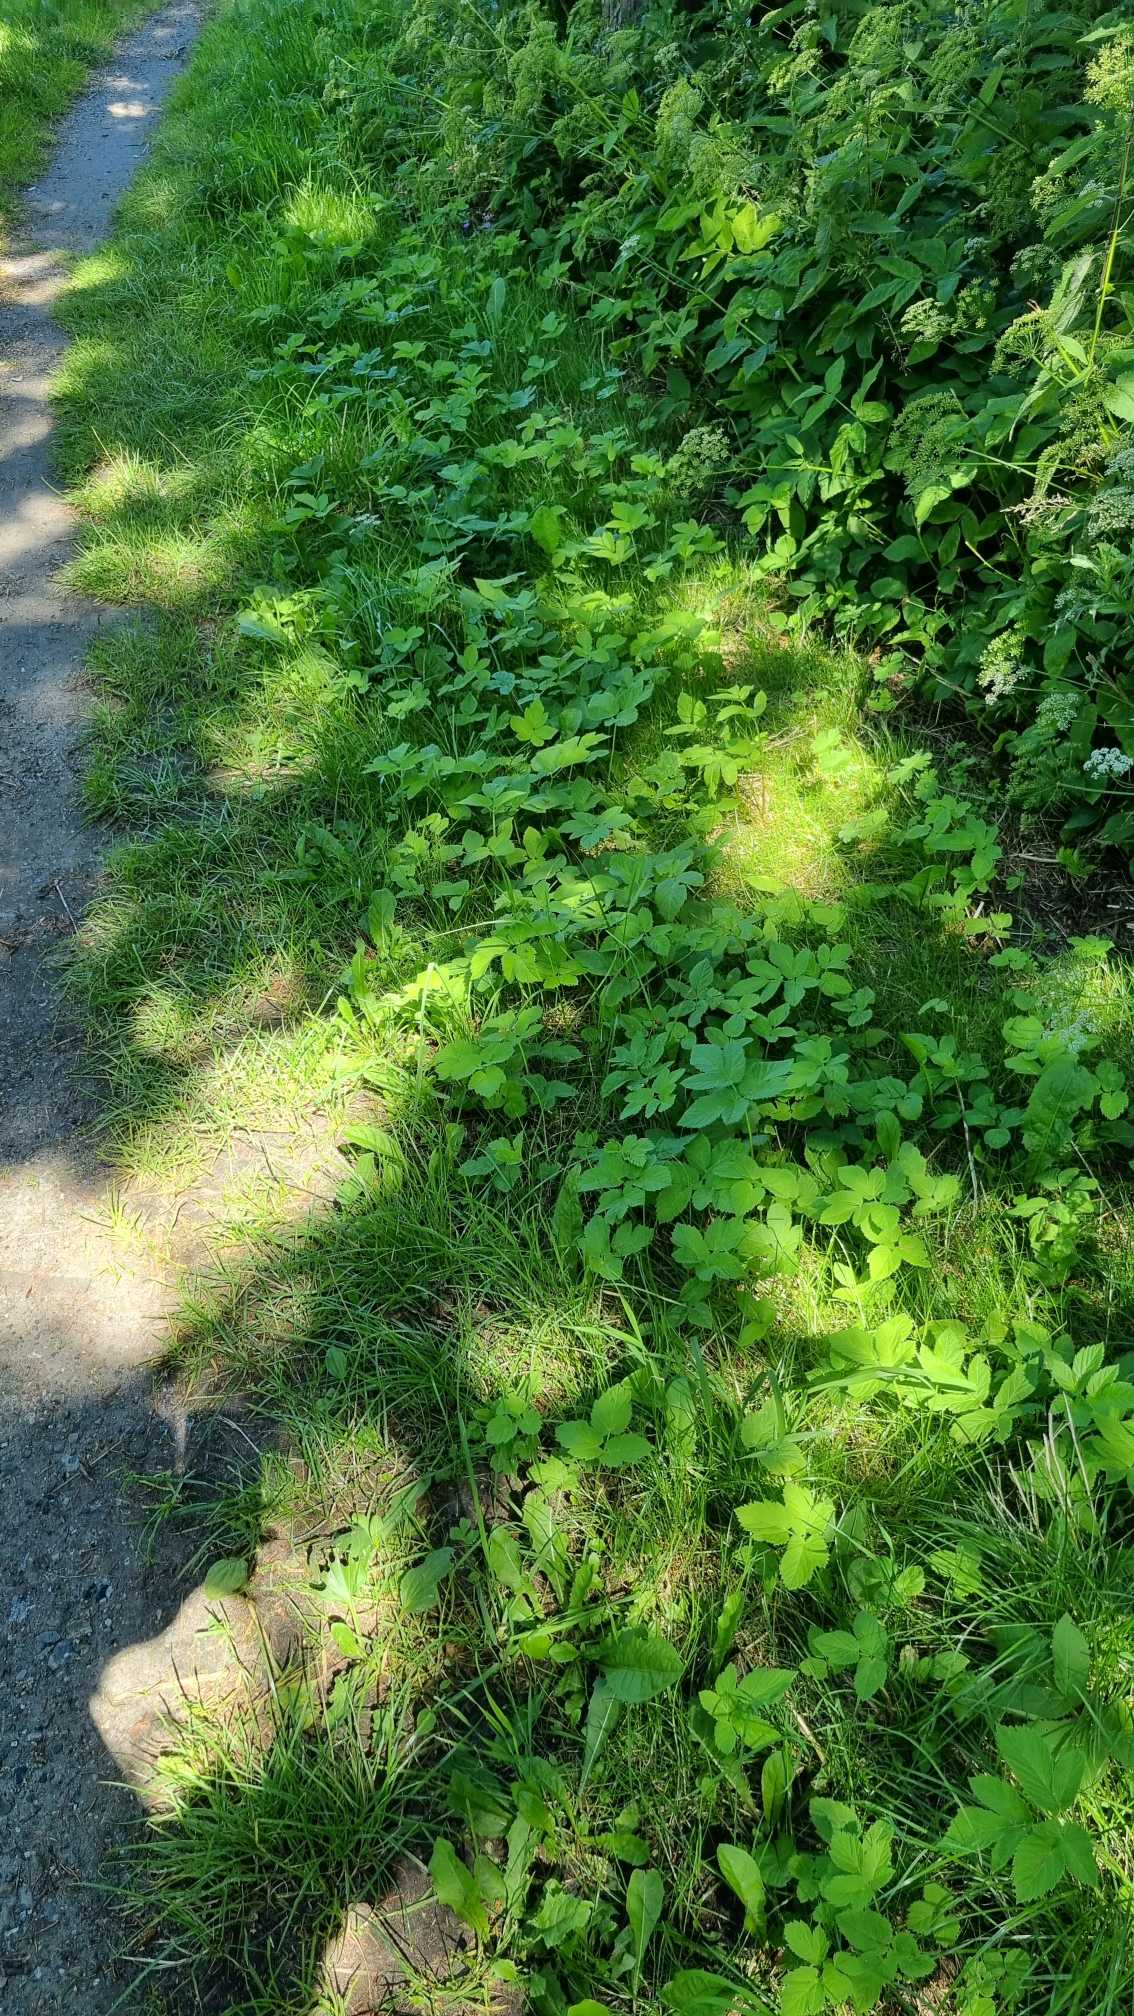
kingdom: Plantae
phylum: Tracheophyta
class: Magnoliopsida
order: Apiales
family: Apiaceae
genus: Aegopodium
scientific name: Aegopodium podagraria
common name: Skvalderkål
